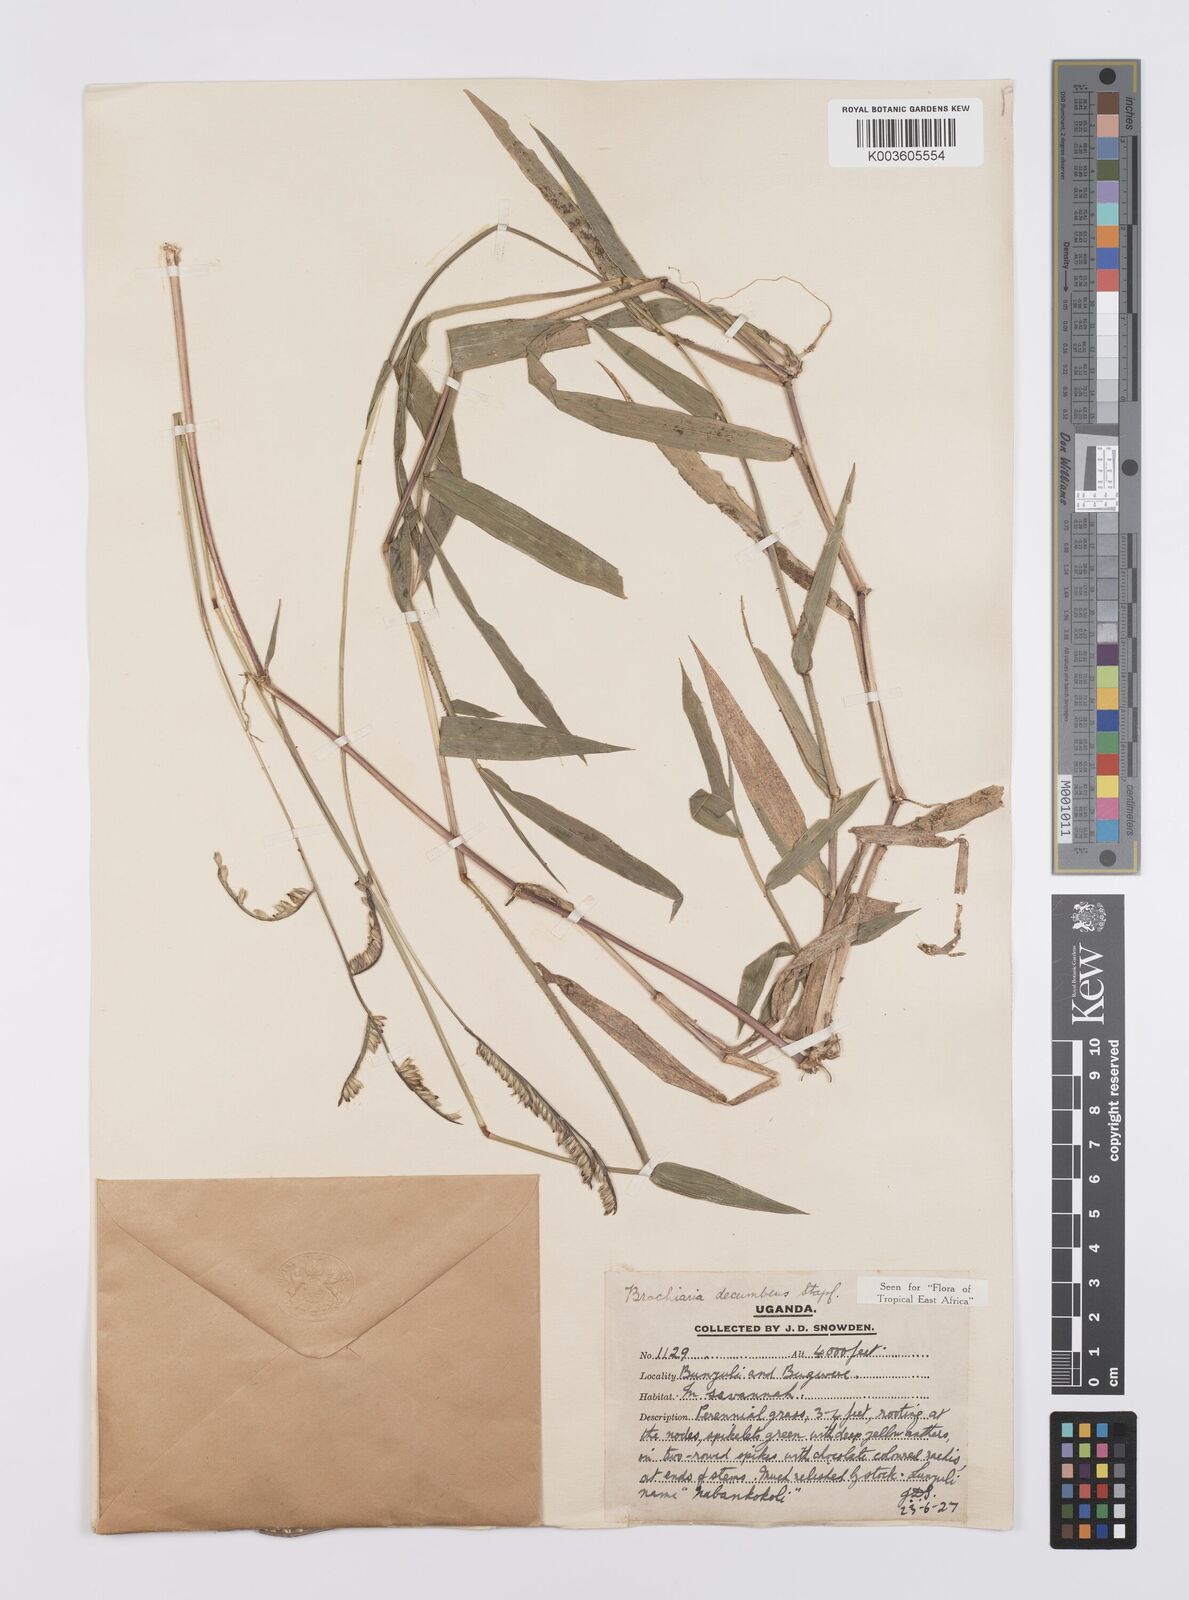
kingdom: Plantae
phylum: Tracheophyta
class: Liliopsida
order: Poales
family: Poaceae
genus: Urochloa
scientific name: Urochloa eminii
